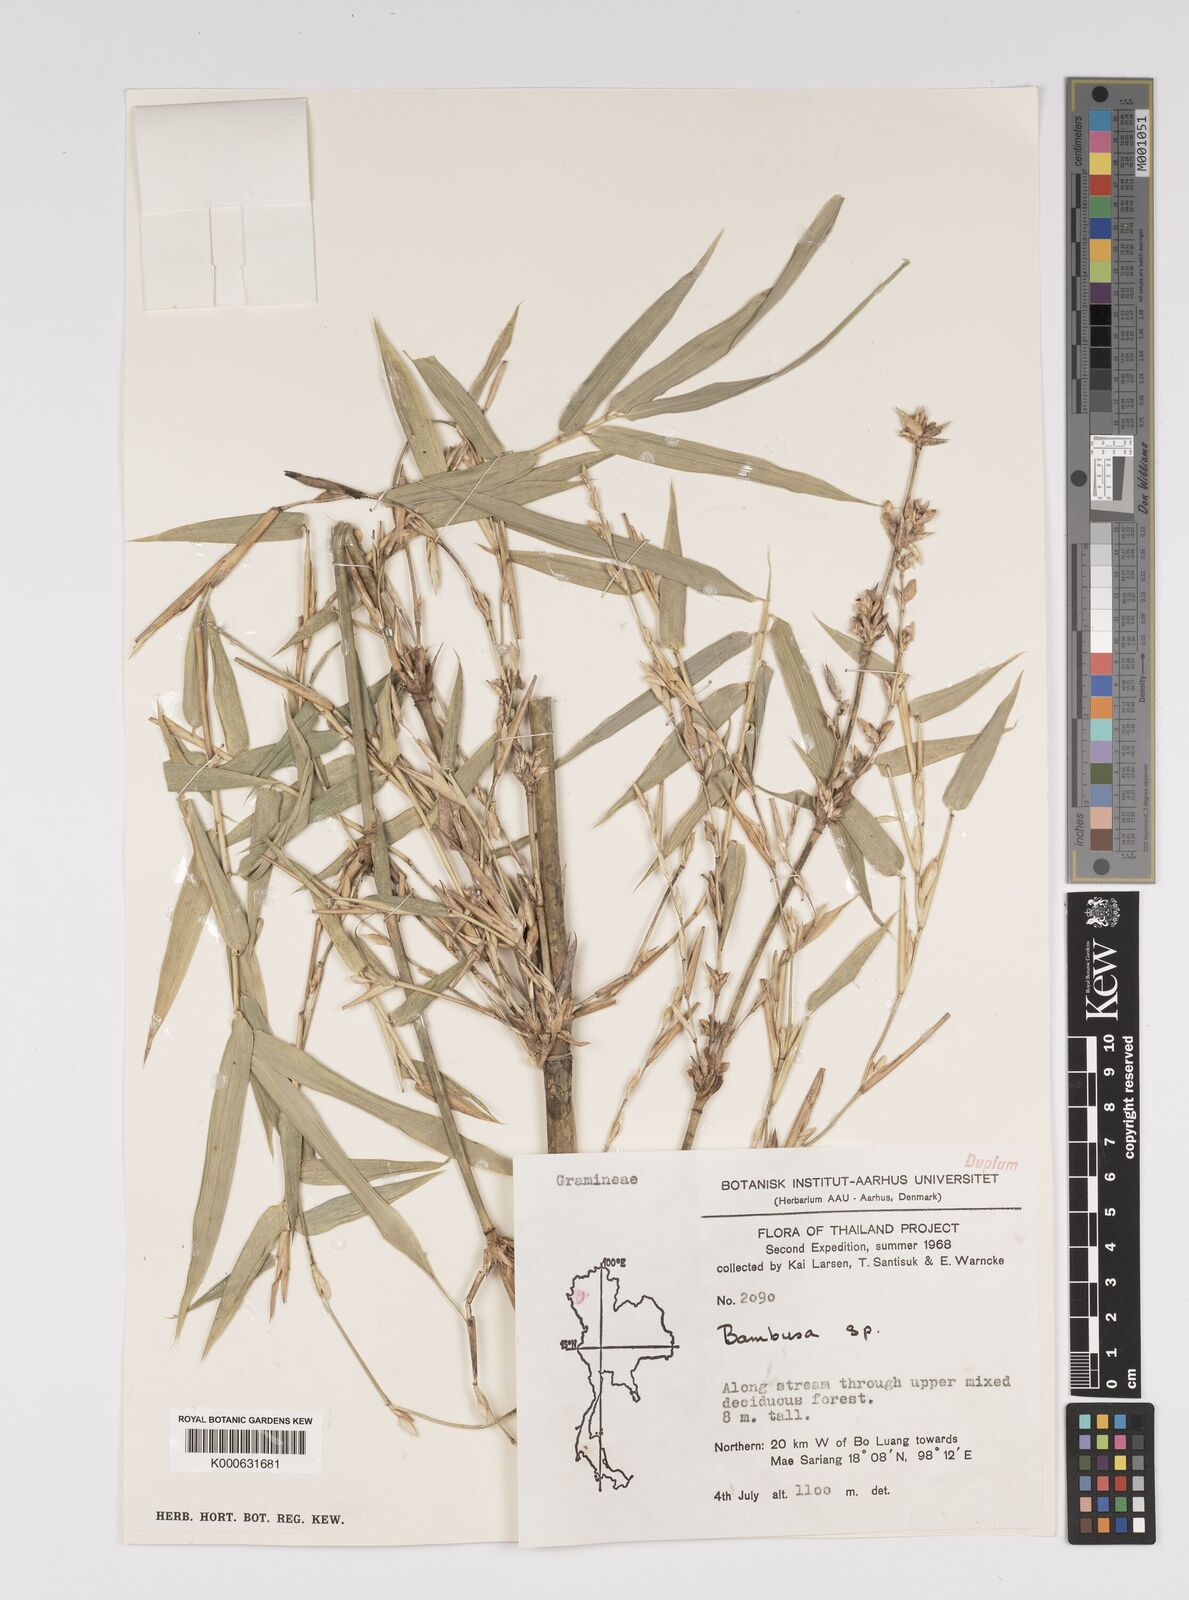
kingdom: Plantae
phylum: Tracheophyta
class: Liliopsida
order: Poales
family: Poaceae
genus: Bambusa
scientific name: Bambusa
